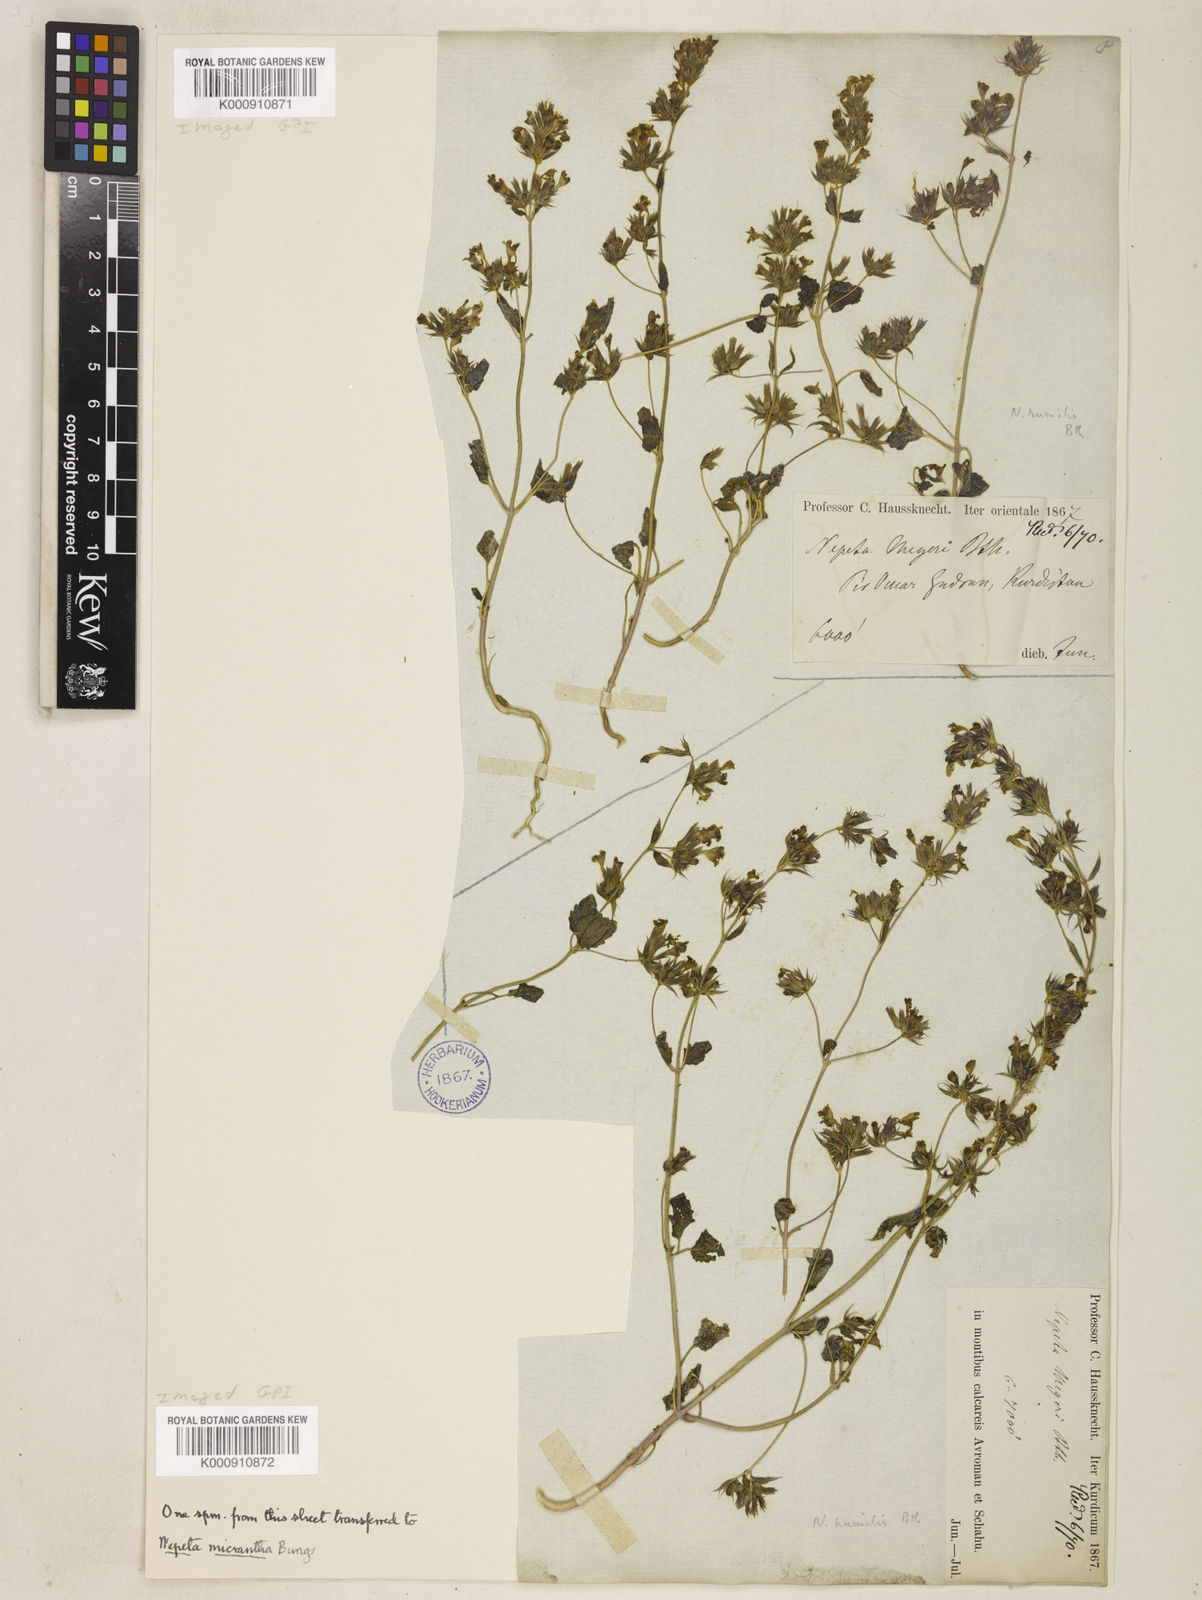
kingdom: Plantae
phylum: Tracheophyta
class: Magnoliopsida
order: Lamiales
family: Lamiaceae
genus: Nepeta
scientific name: Nepeta humilis
